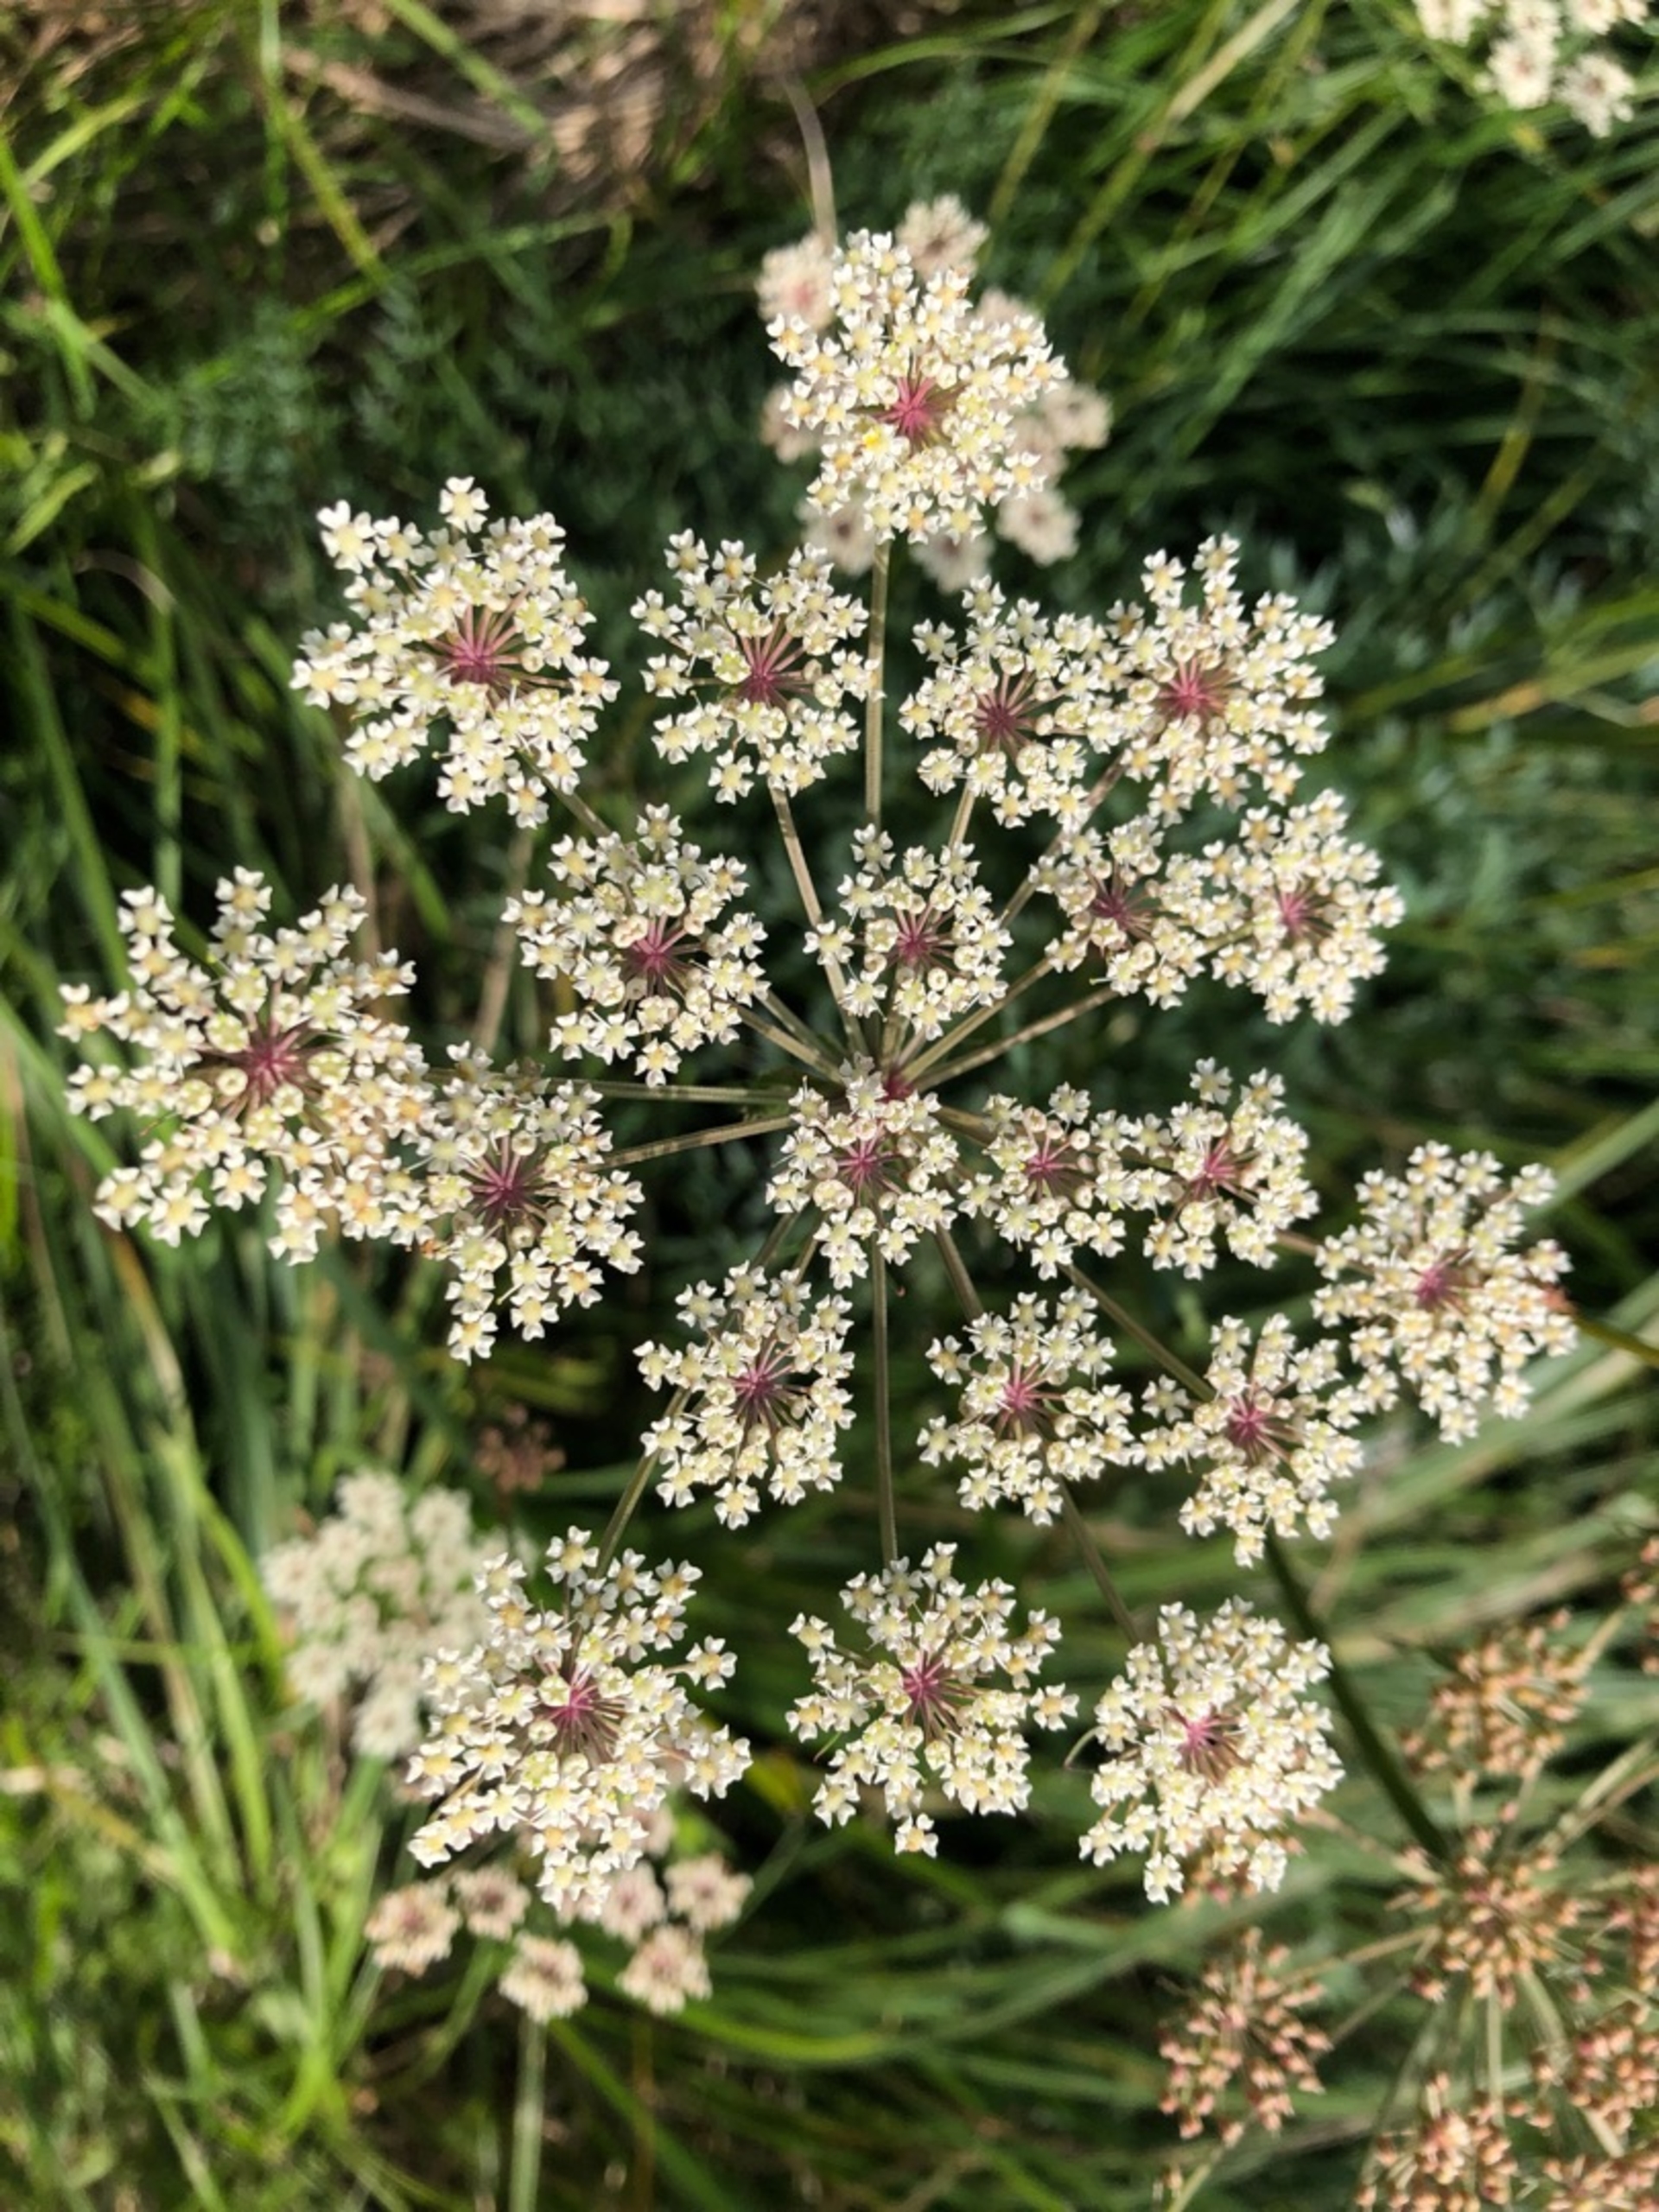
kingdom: Plantae
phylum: Tracheophyta
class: Magnoliopsida
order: Apiales
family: Apiaceae
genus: Thysselinum
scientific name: Thysselinum palustre
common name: Kær-svovlrod
